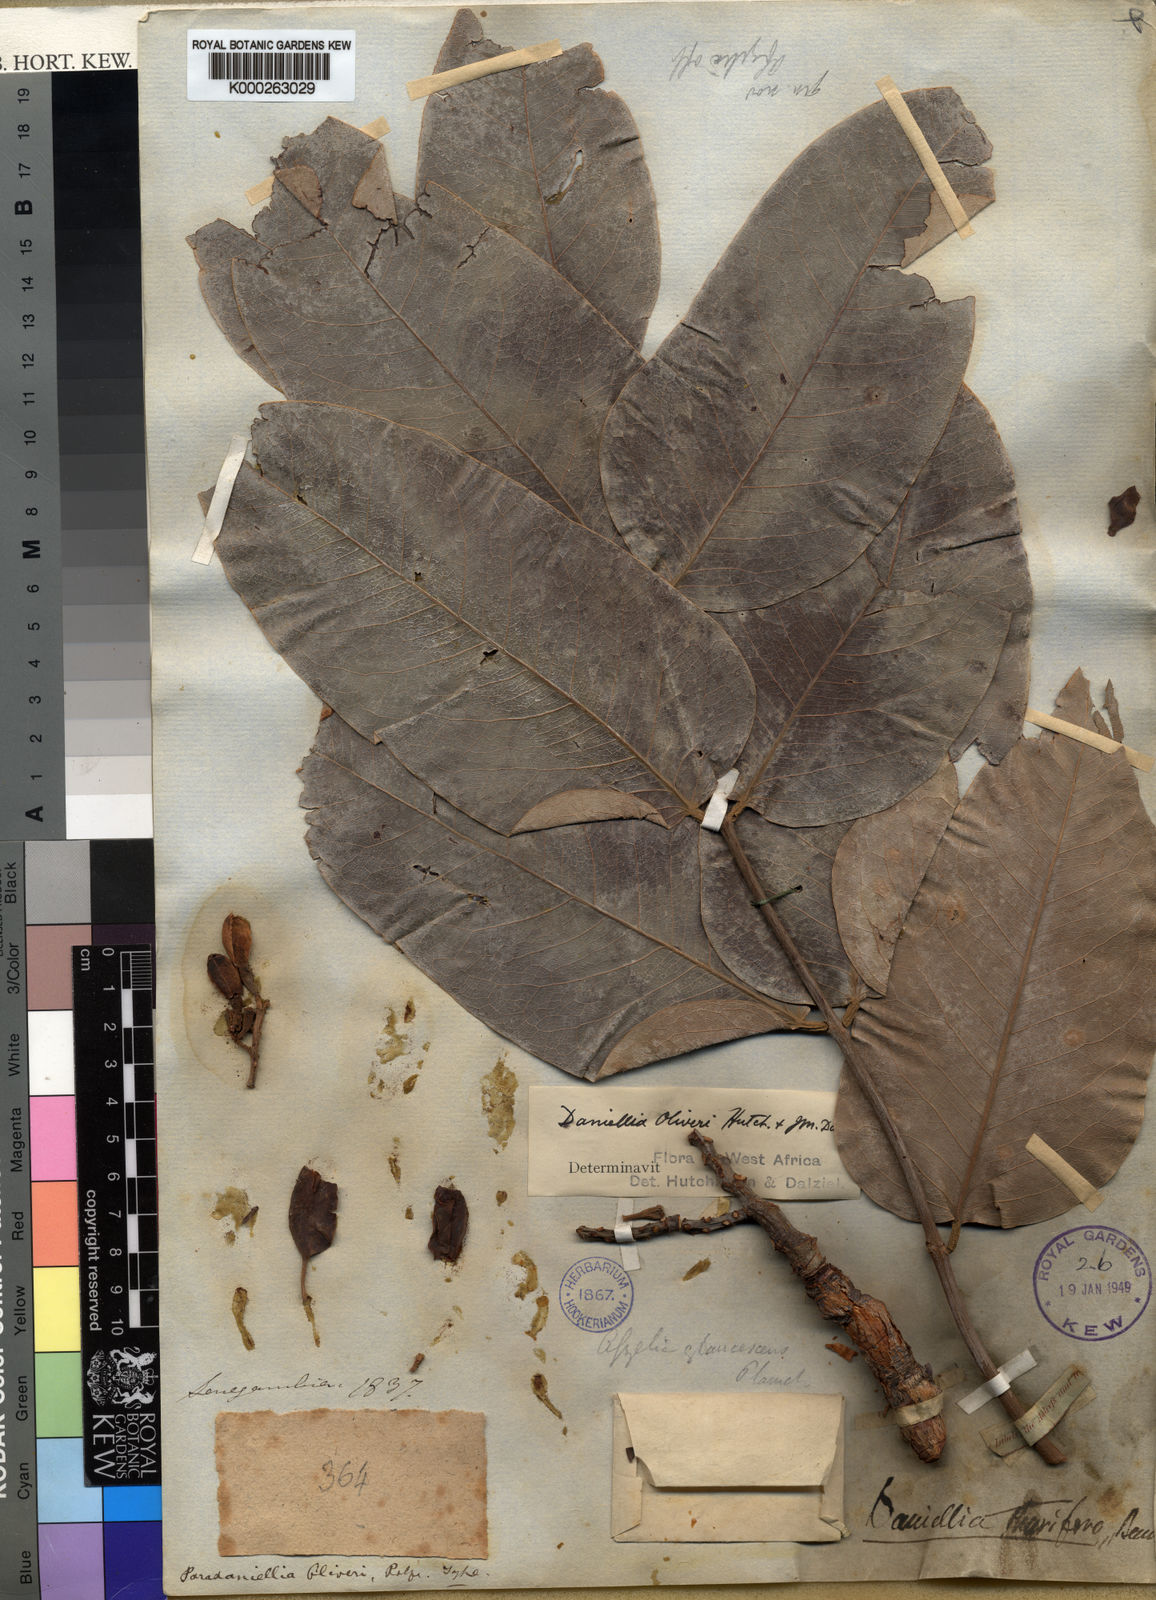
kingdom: Plantae
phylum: Tracheophyta
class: Magnoliopsida
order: Fabales
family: Fabaceae
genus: Daniellia
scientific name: Daniellia oliveri
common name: African copaiba balsamtree
